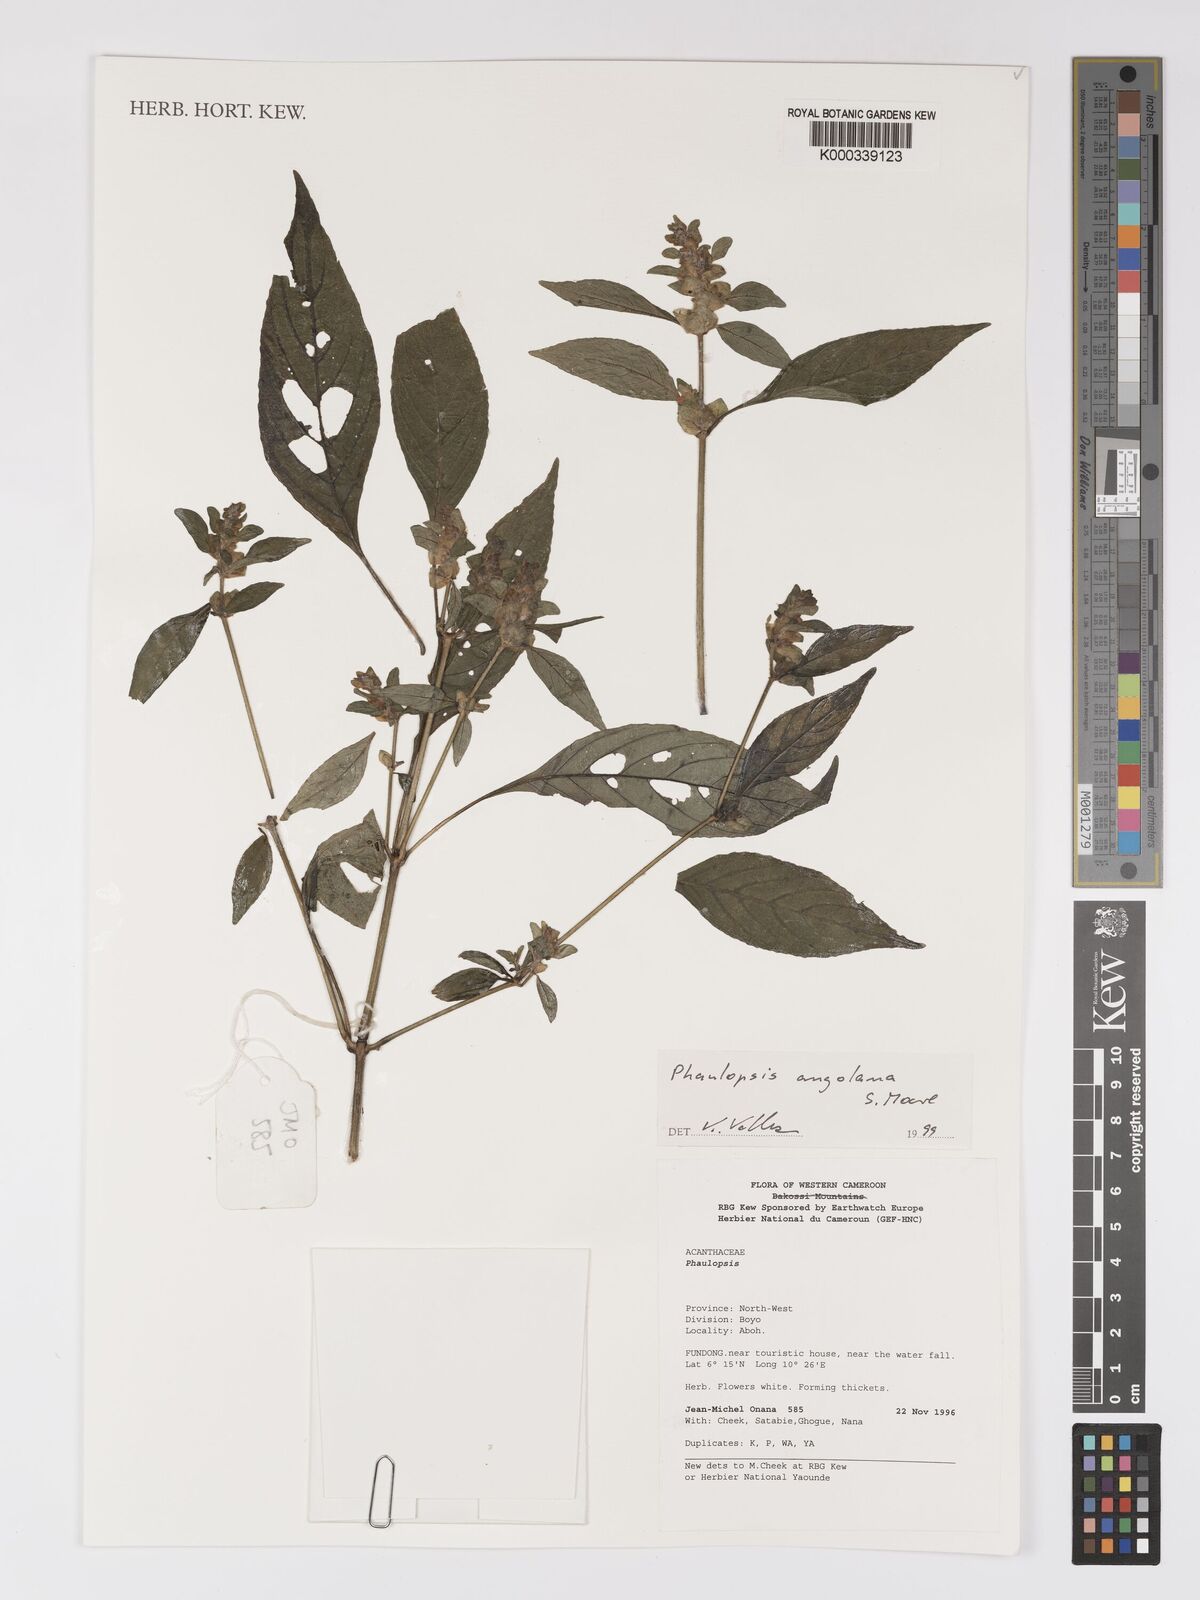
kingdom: Plantae
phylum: Tracheophyta
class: Magnoliopsida
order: Lamiales
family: Acanthaceae
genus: Phaulopsis
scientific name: Phaulopsis angolana
